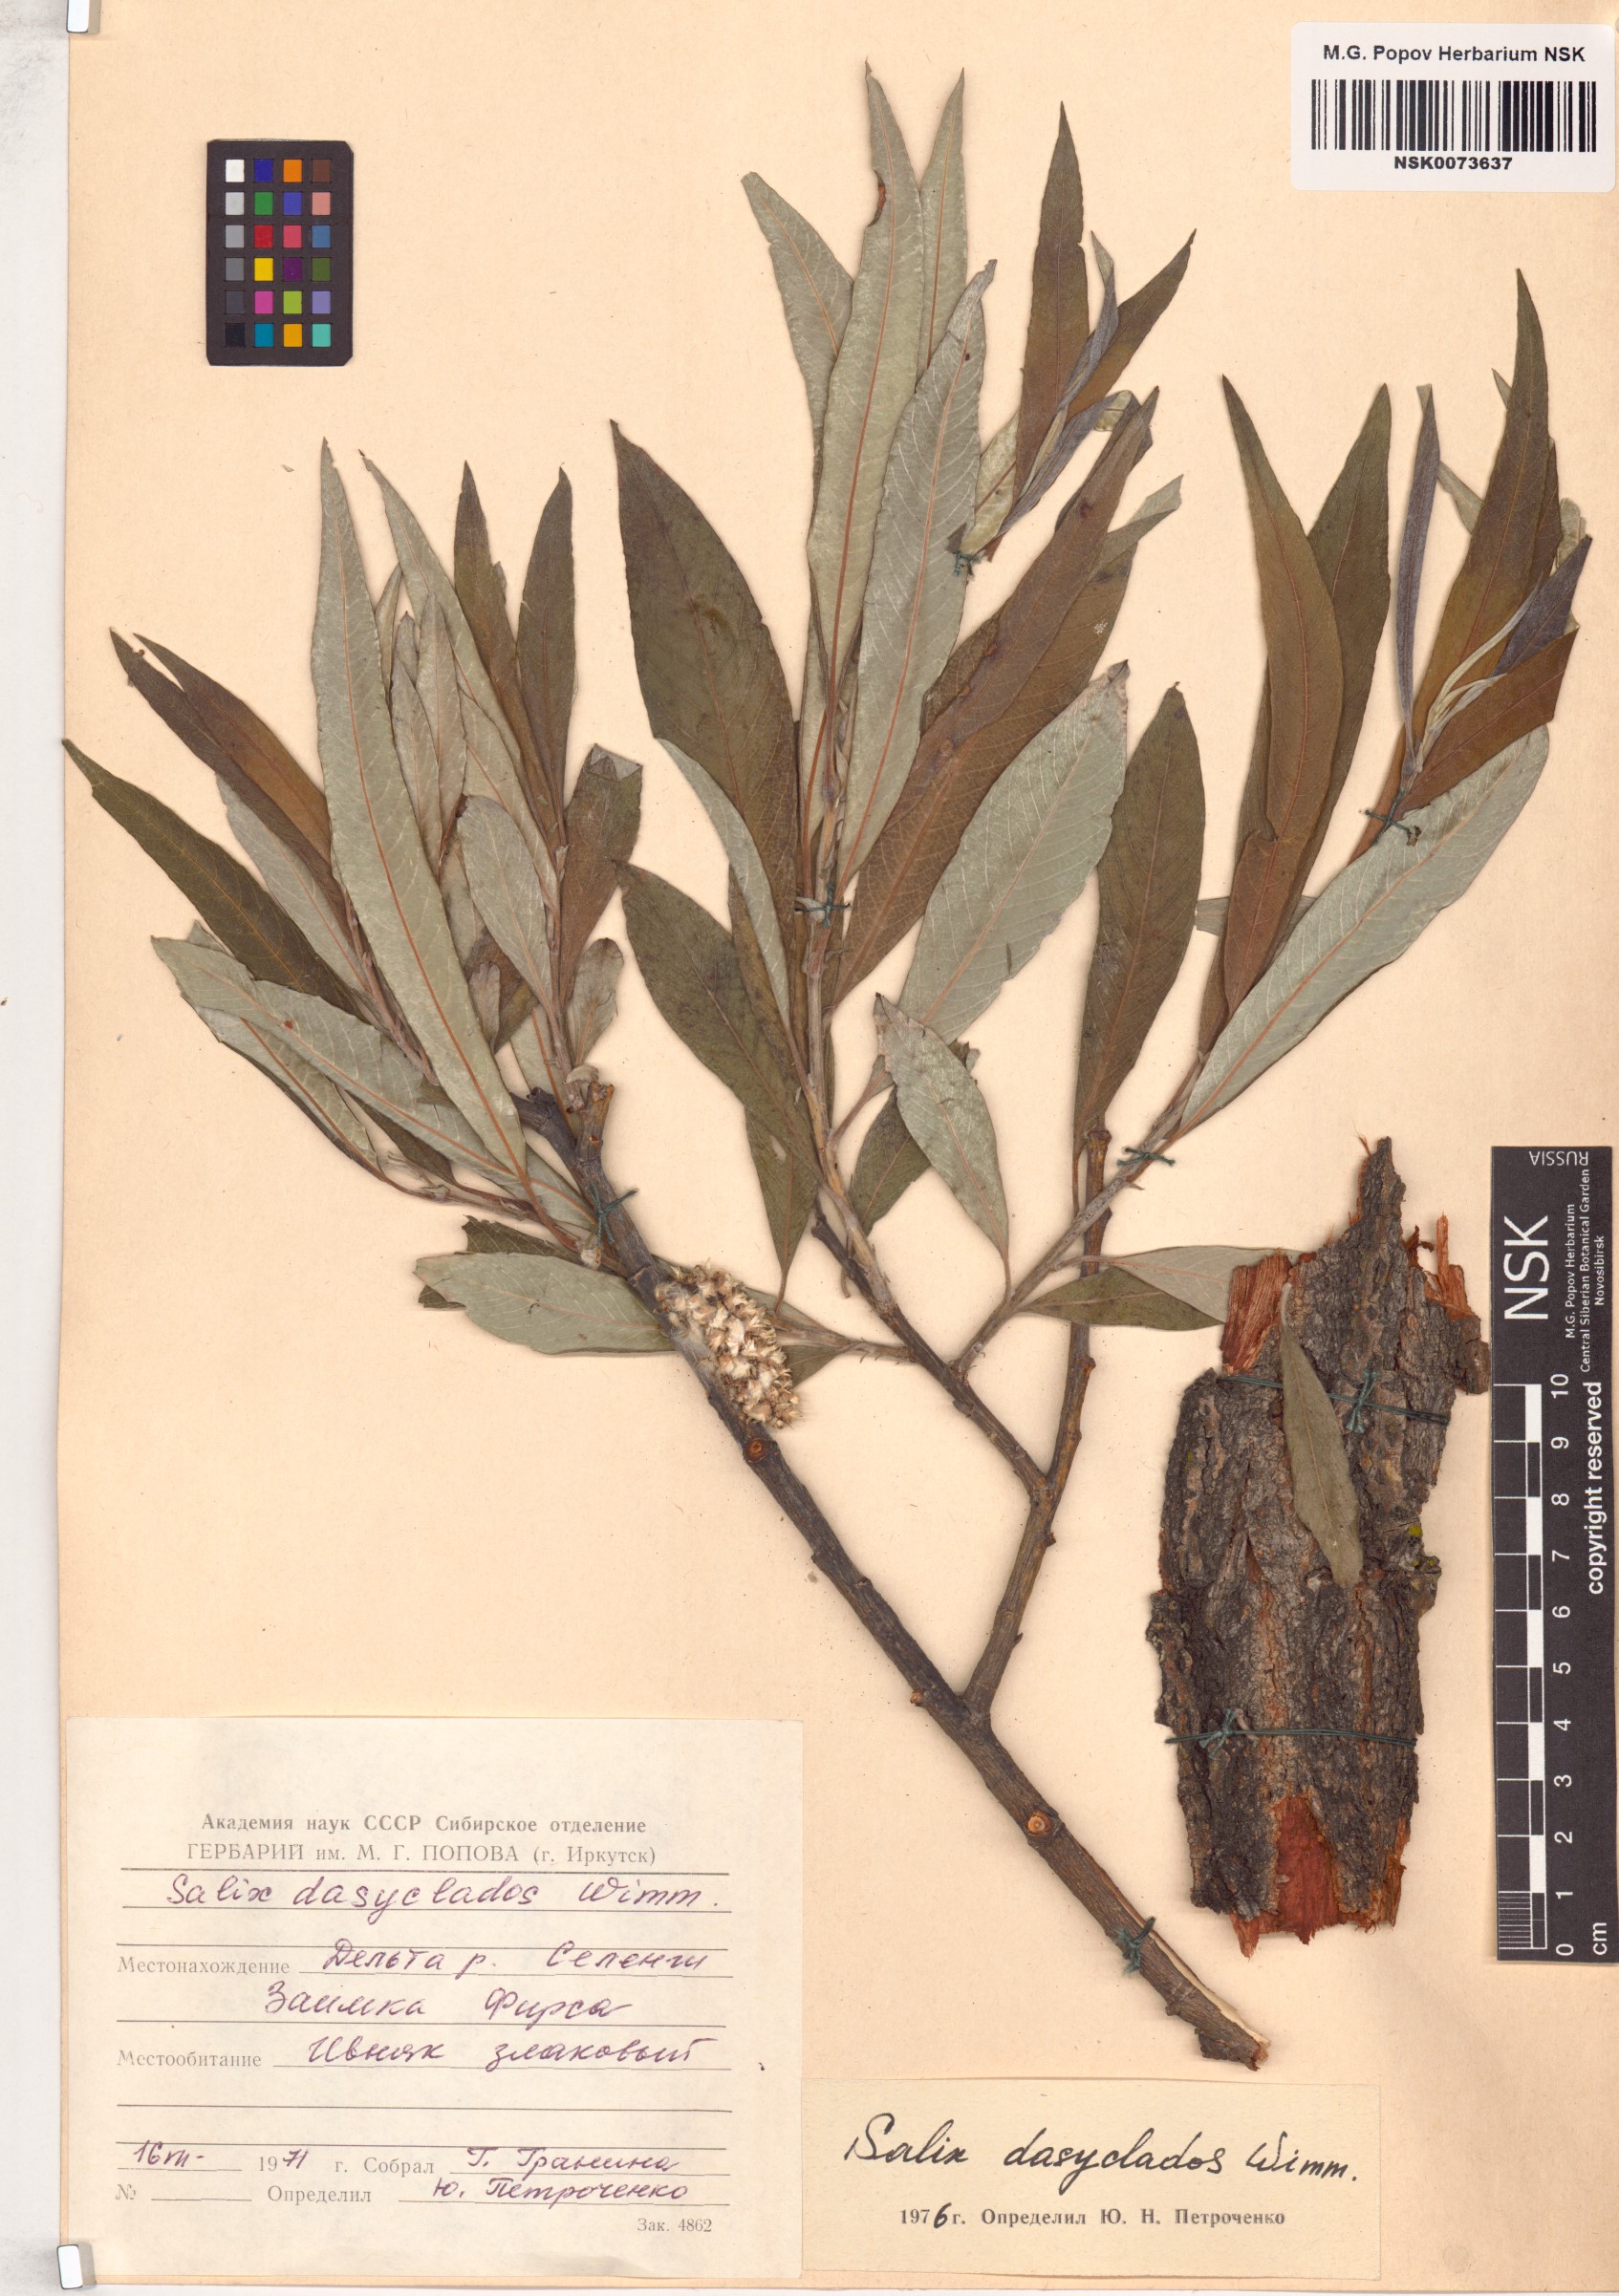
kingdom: Plantae
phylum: Tracheophyta
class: Magnoliopsida
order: Malpighiales
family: Salicaceae
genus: Salix
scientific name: Salix gmelinii
